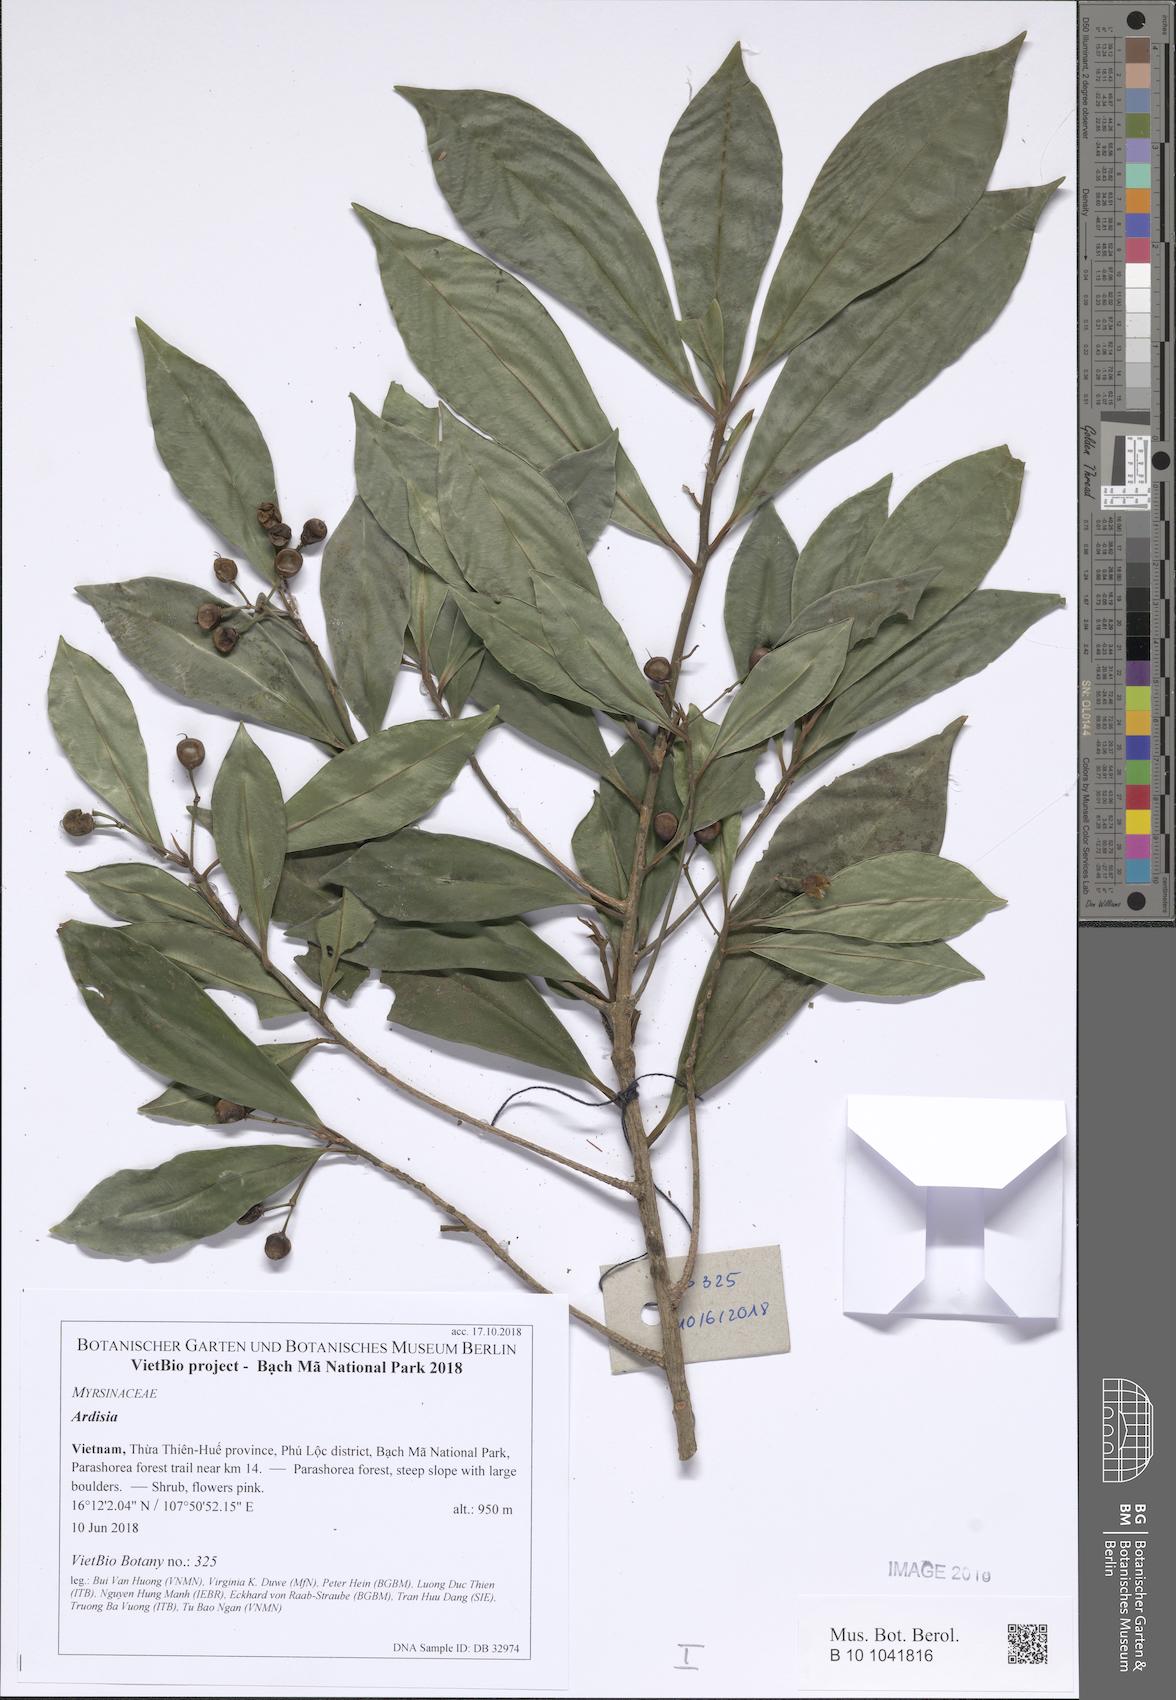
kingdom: Plantae
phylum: Tracheophyta
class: Magnoliopsida
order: Ericales
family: Primulaceae
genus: Ardisia
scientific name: Ardisia rhodochroa
